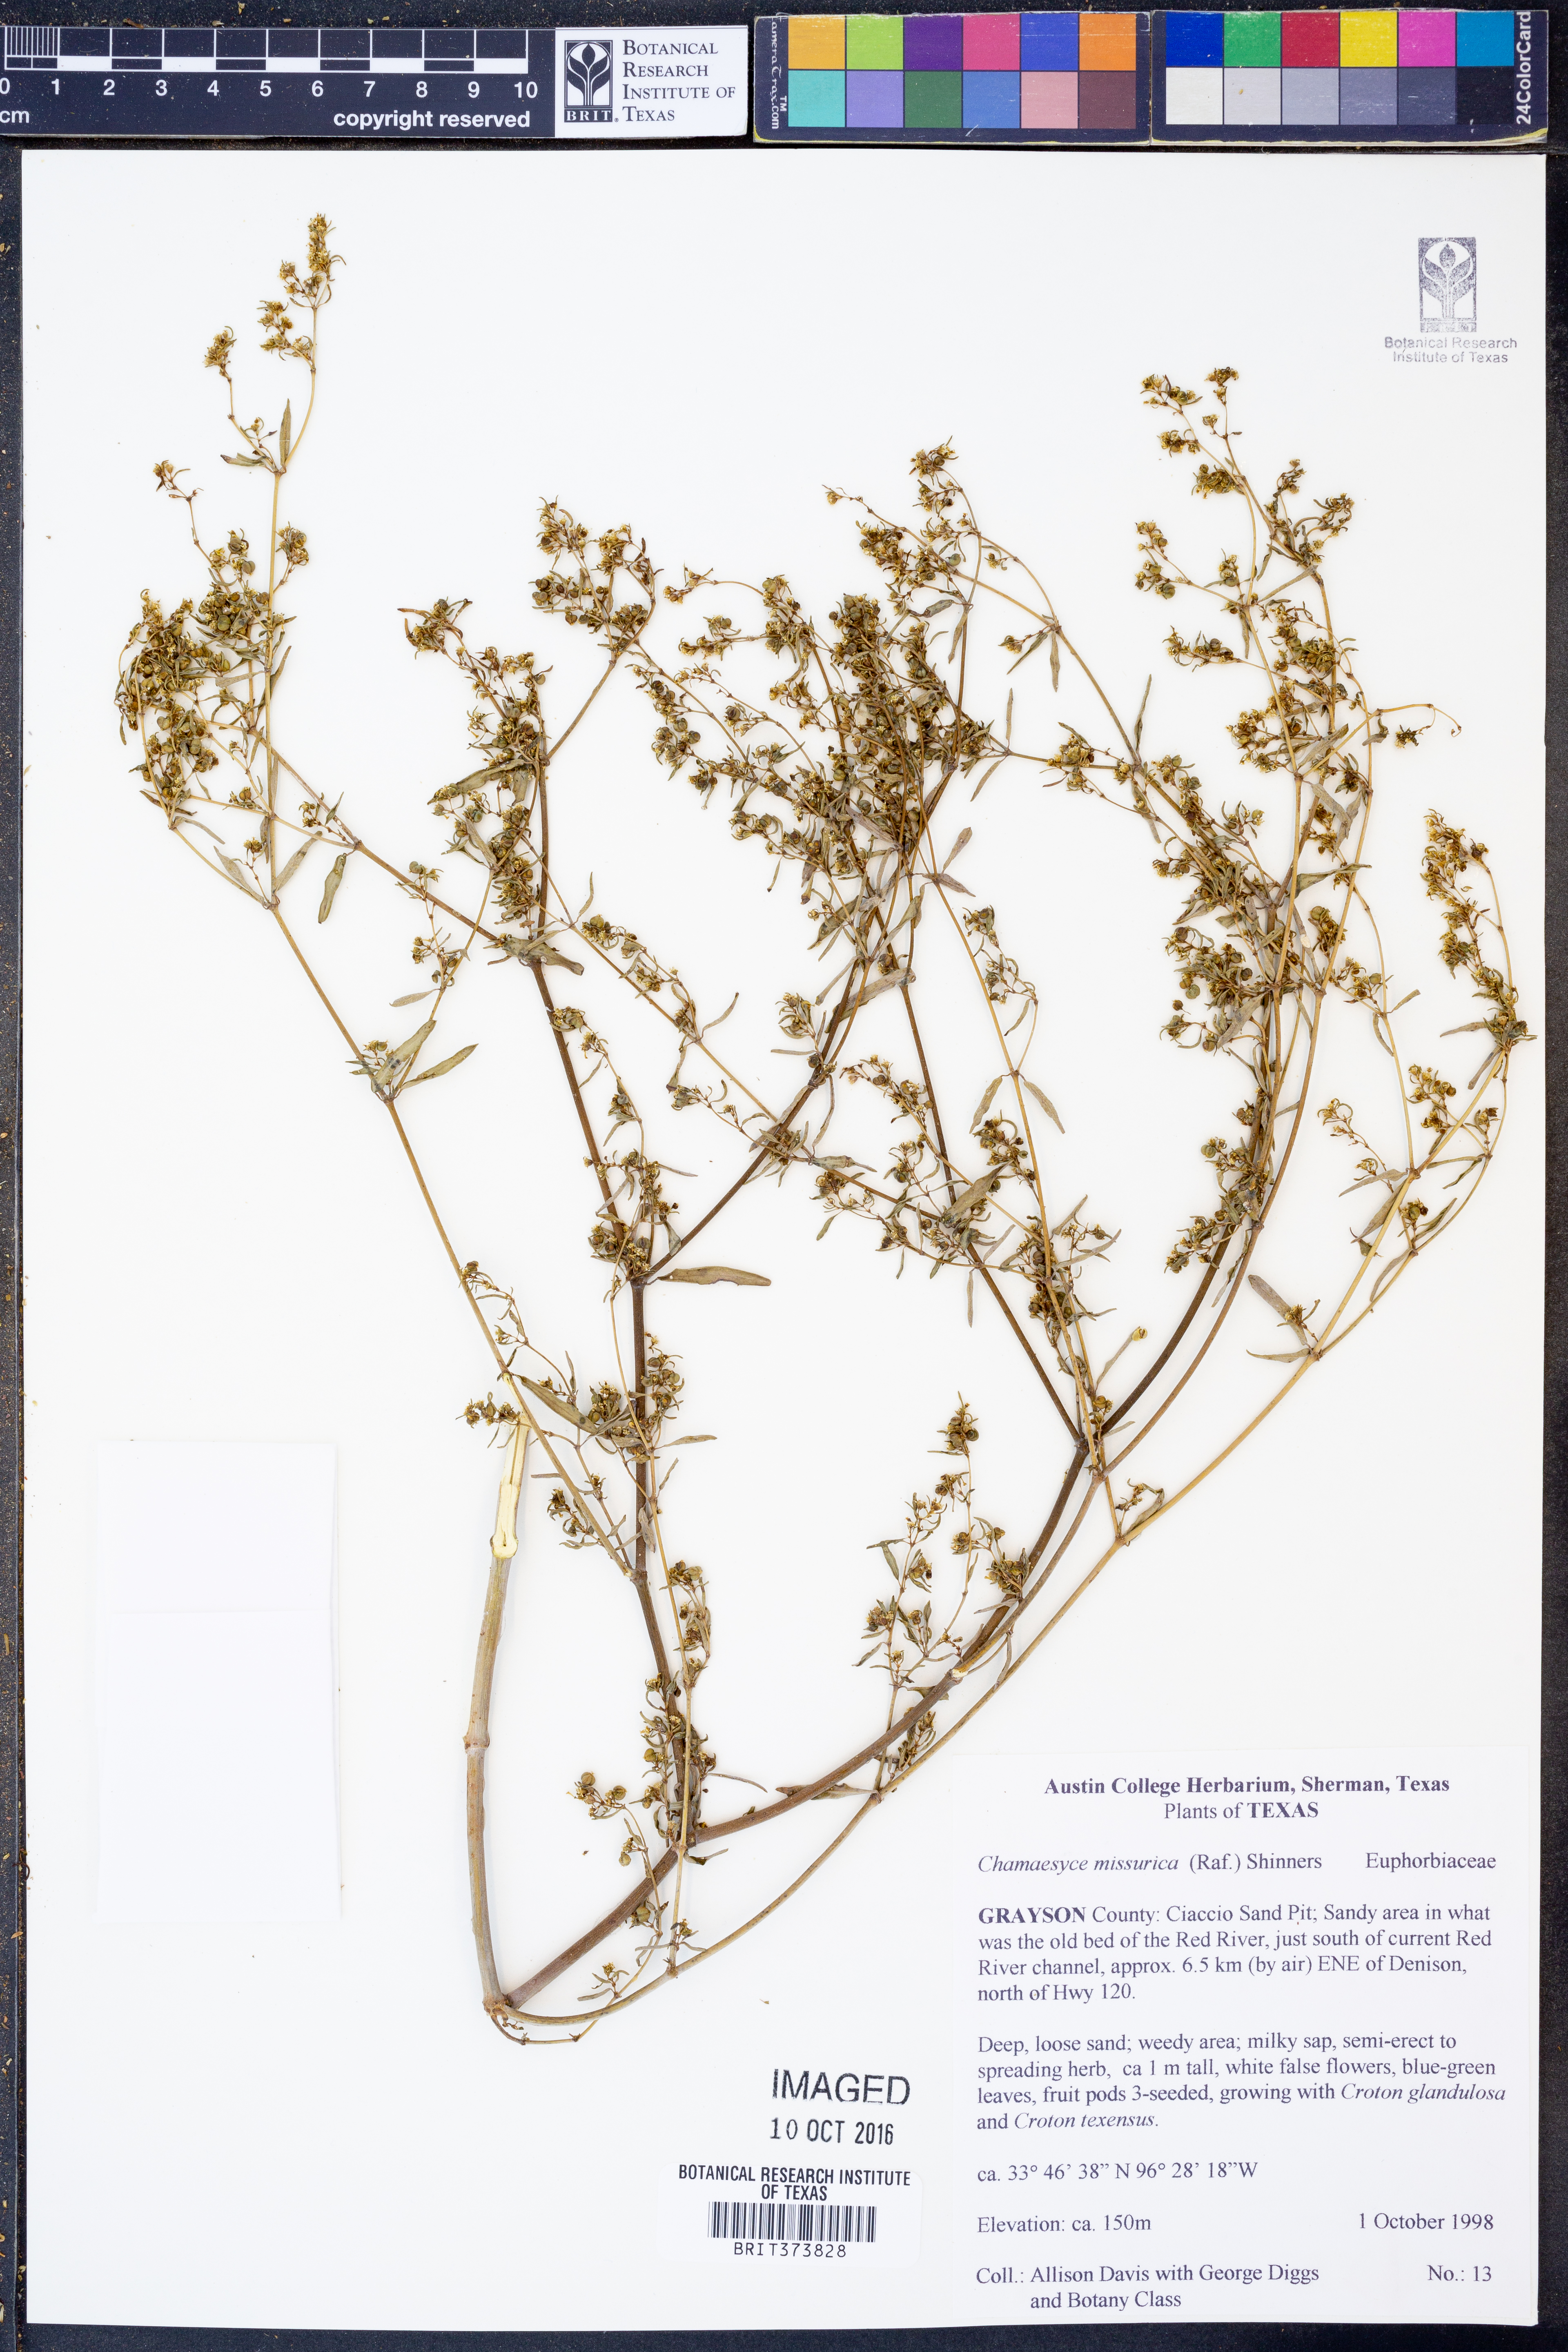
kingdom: Plantae
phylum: Tracheophyta
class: Magnoliopsida
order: Malpighiales
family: Euphorbiaceae
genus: Euphorbia
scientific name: Euphorbia missurica
